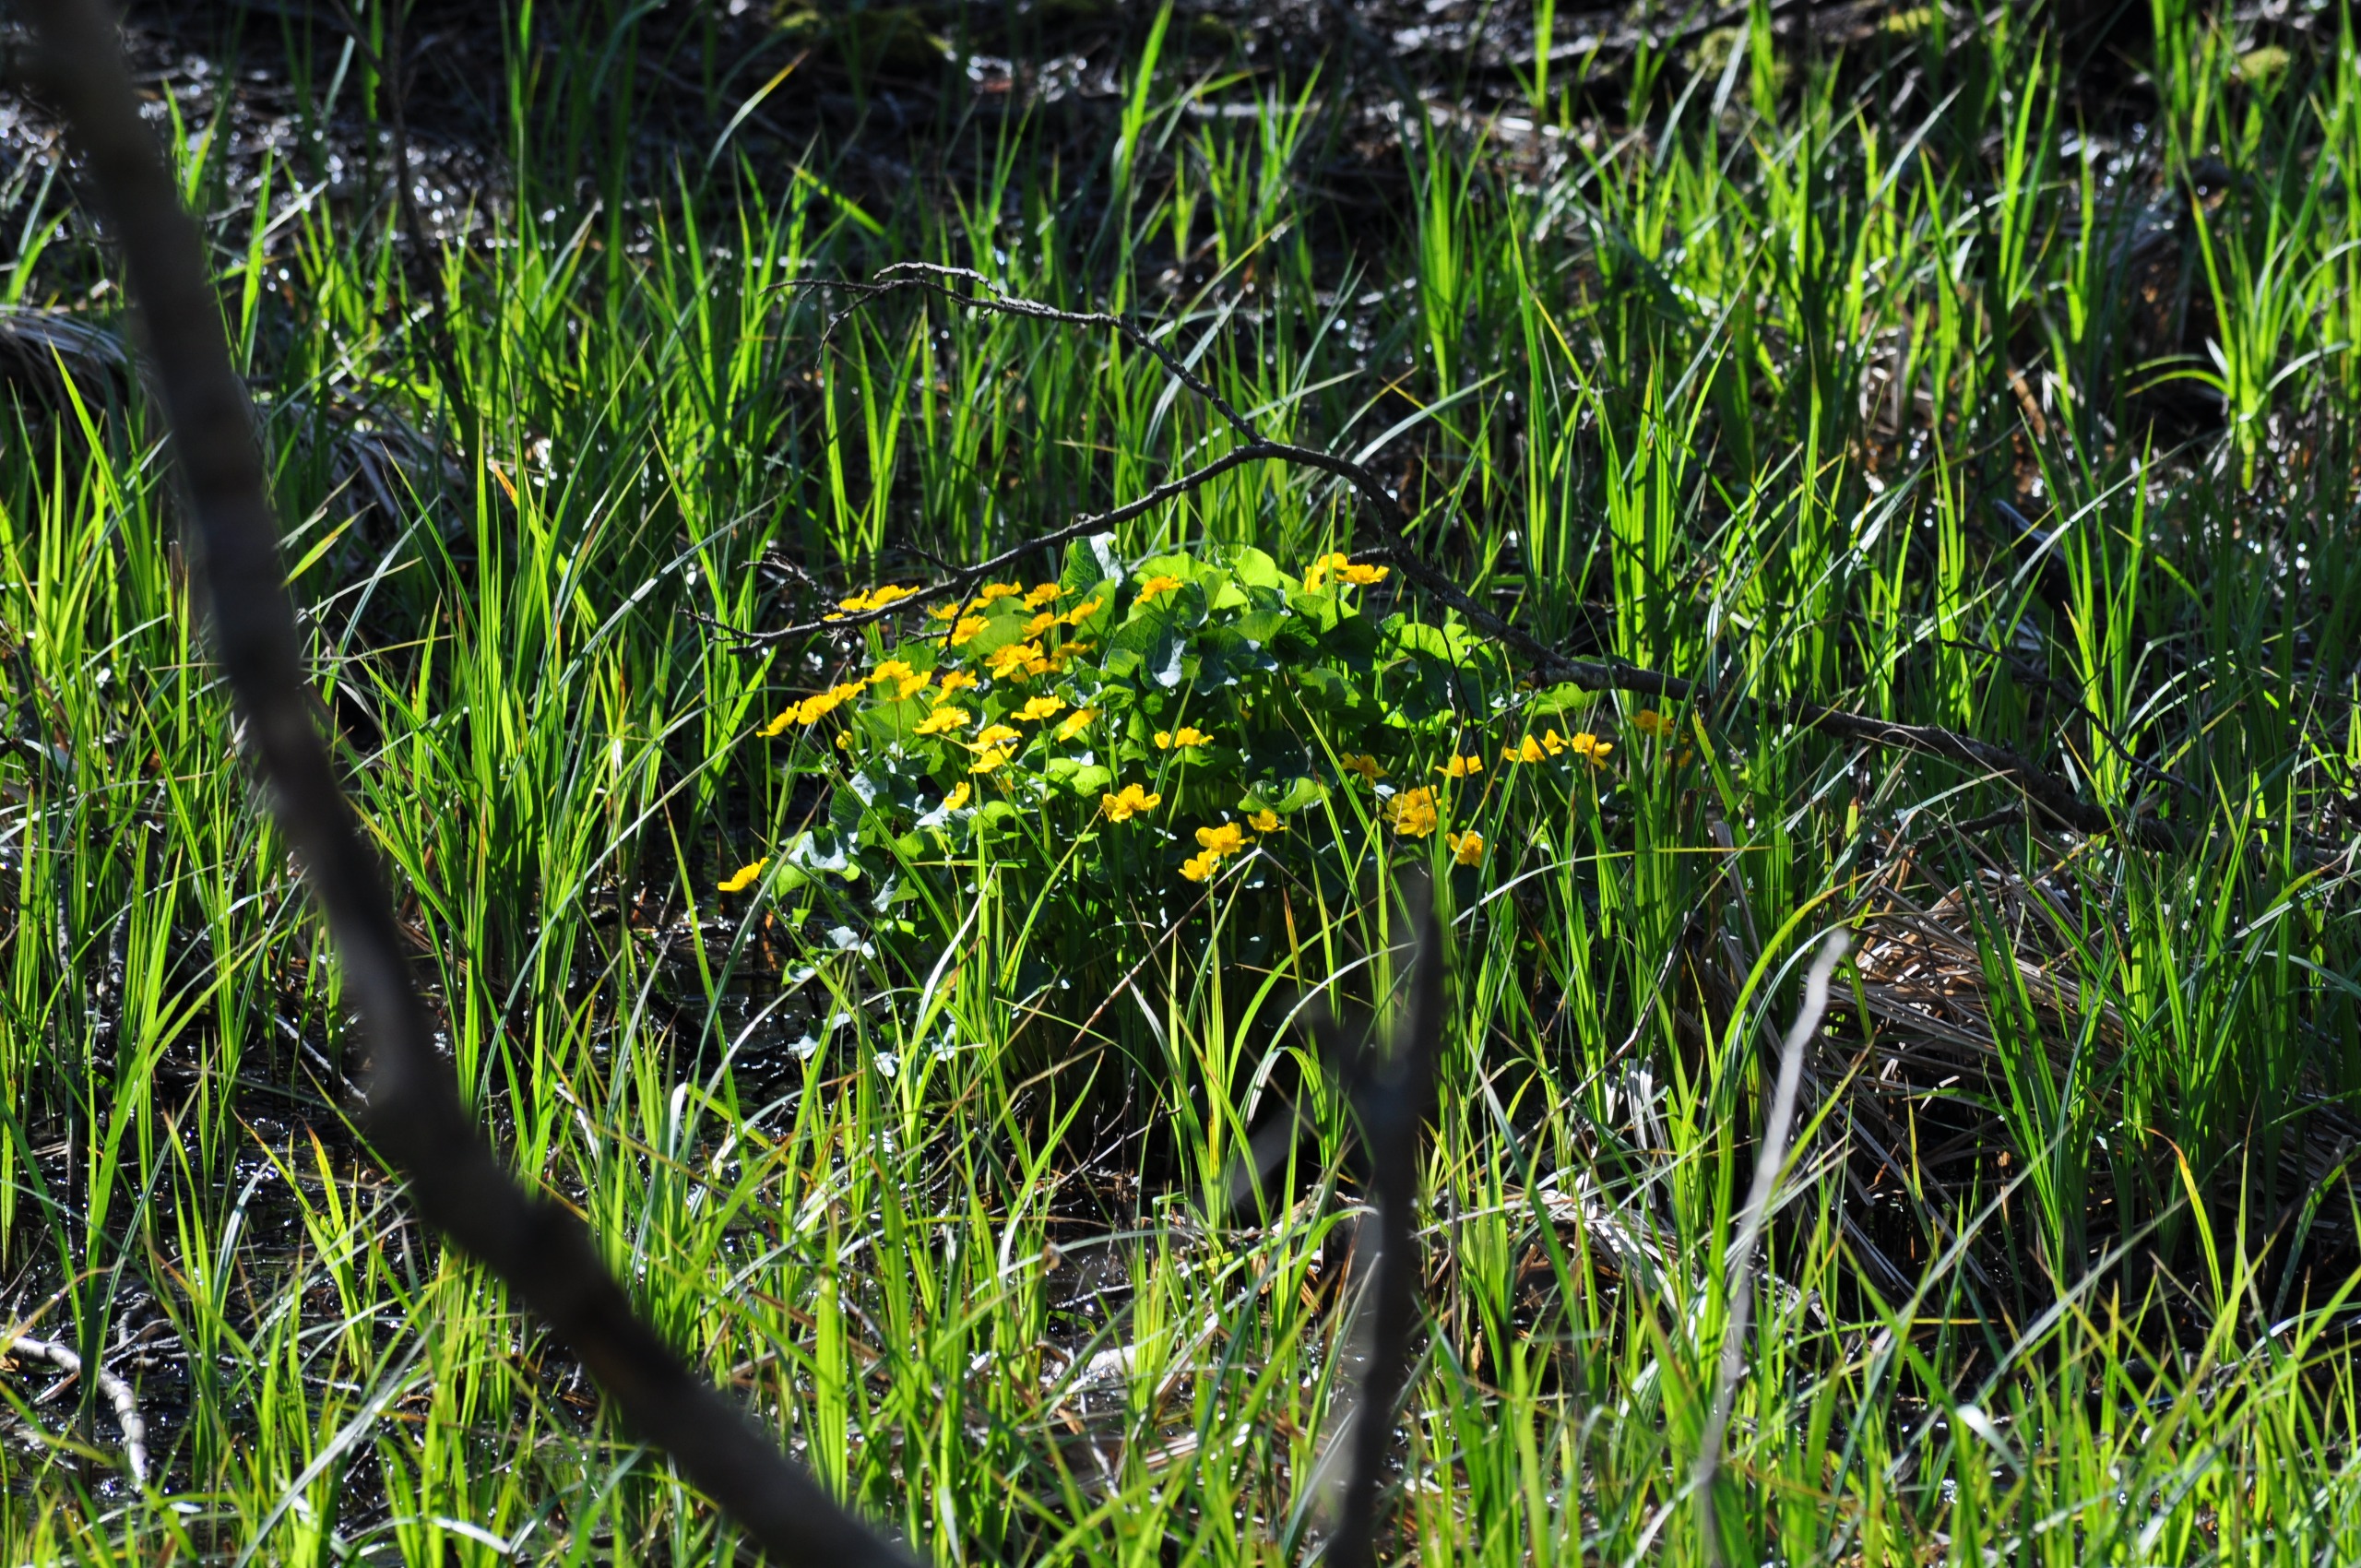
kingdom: Plantae
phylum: Tracheophyta
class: Magnoliopsida
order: Ranunculales
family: Ranunculaceae
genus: Caltha
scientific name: Caltha palustris
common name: Eng-kabbeleje
